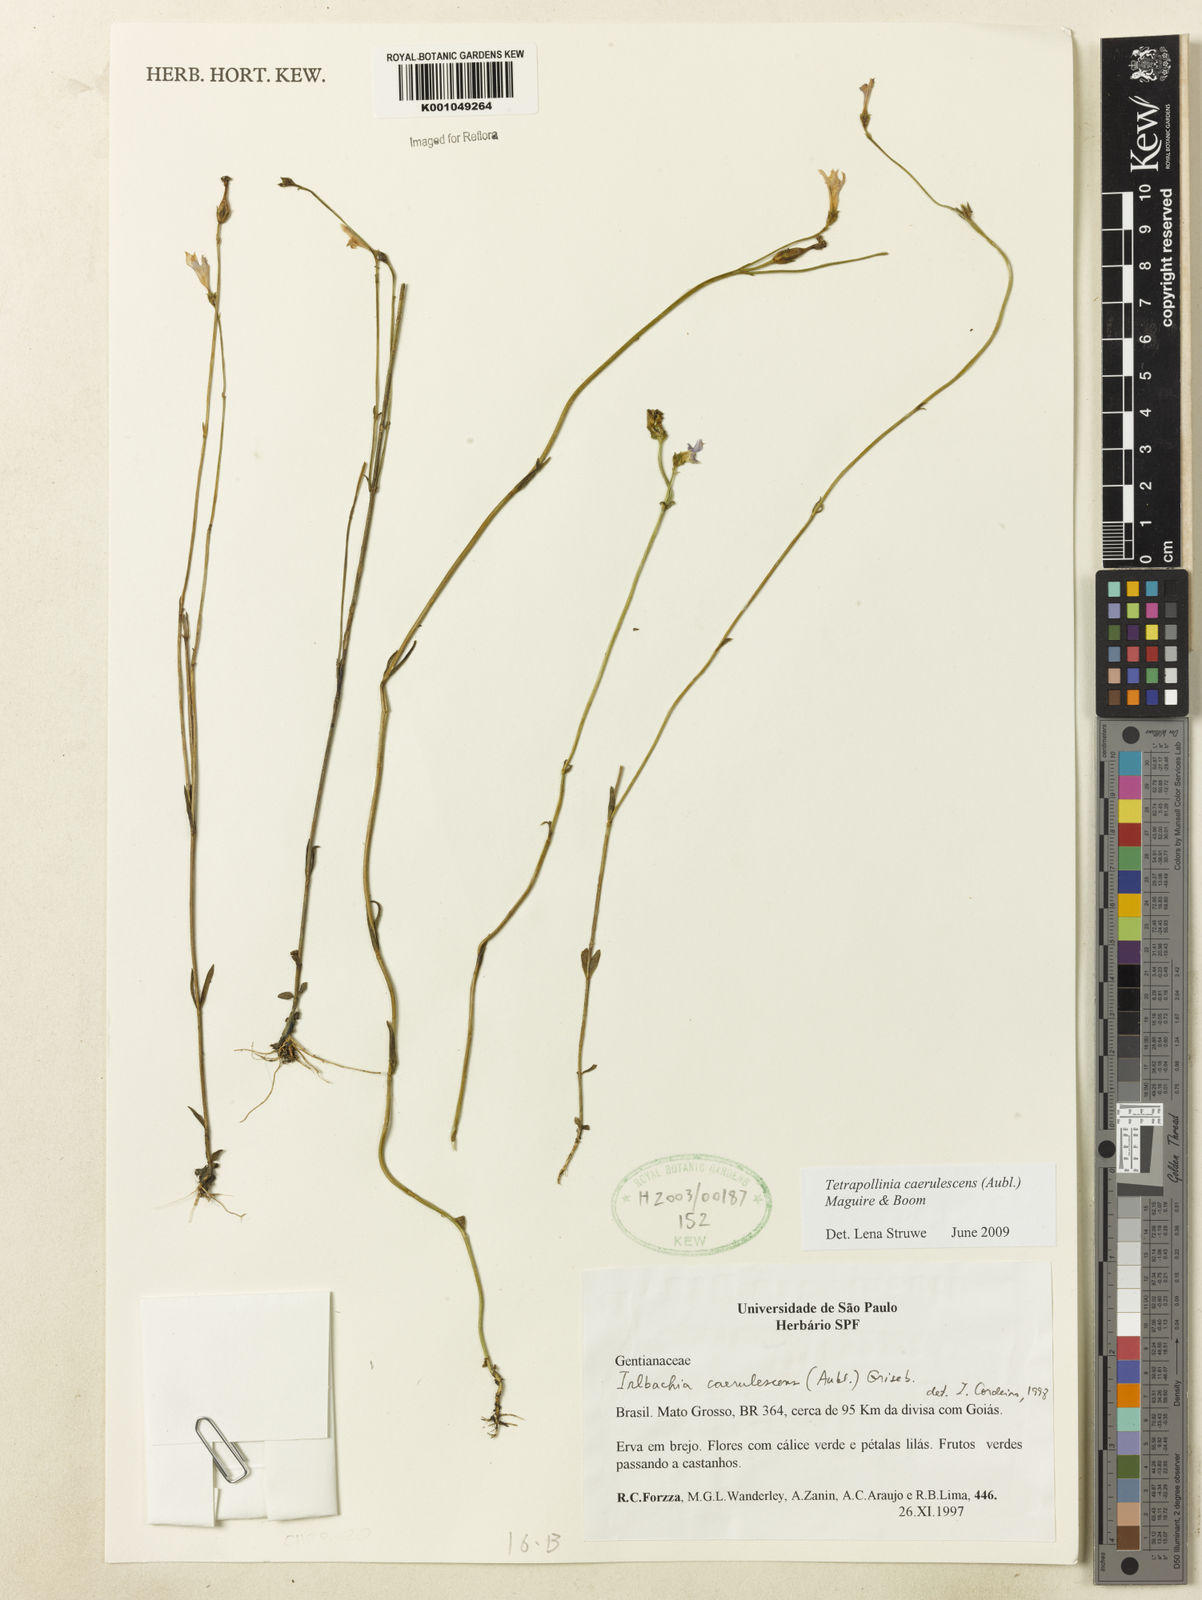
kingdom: Plantae
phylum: Tracheophyta
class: Magnoliopsida
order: Gentianales
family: Gentianaceae
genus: Tetrapollinia
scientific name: Tetrapollinia caerulescens
